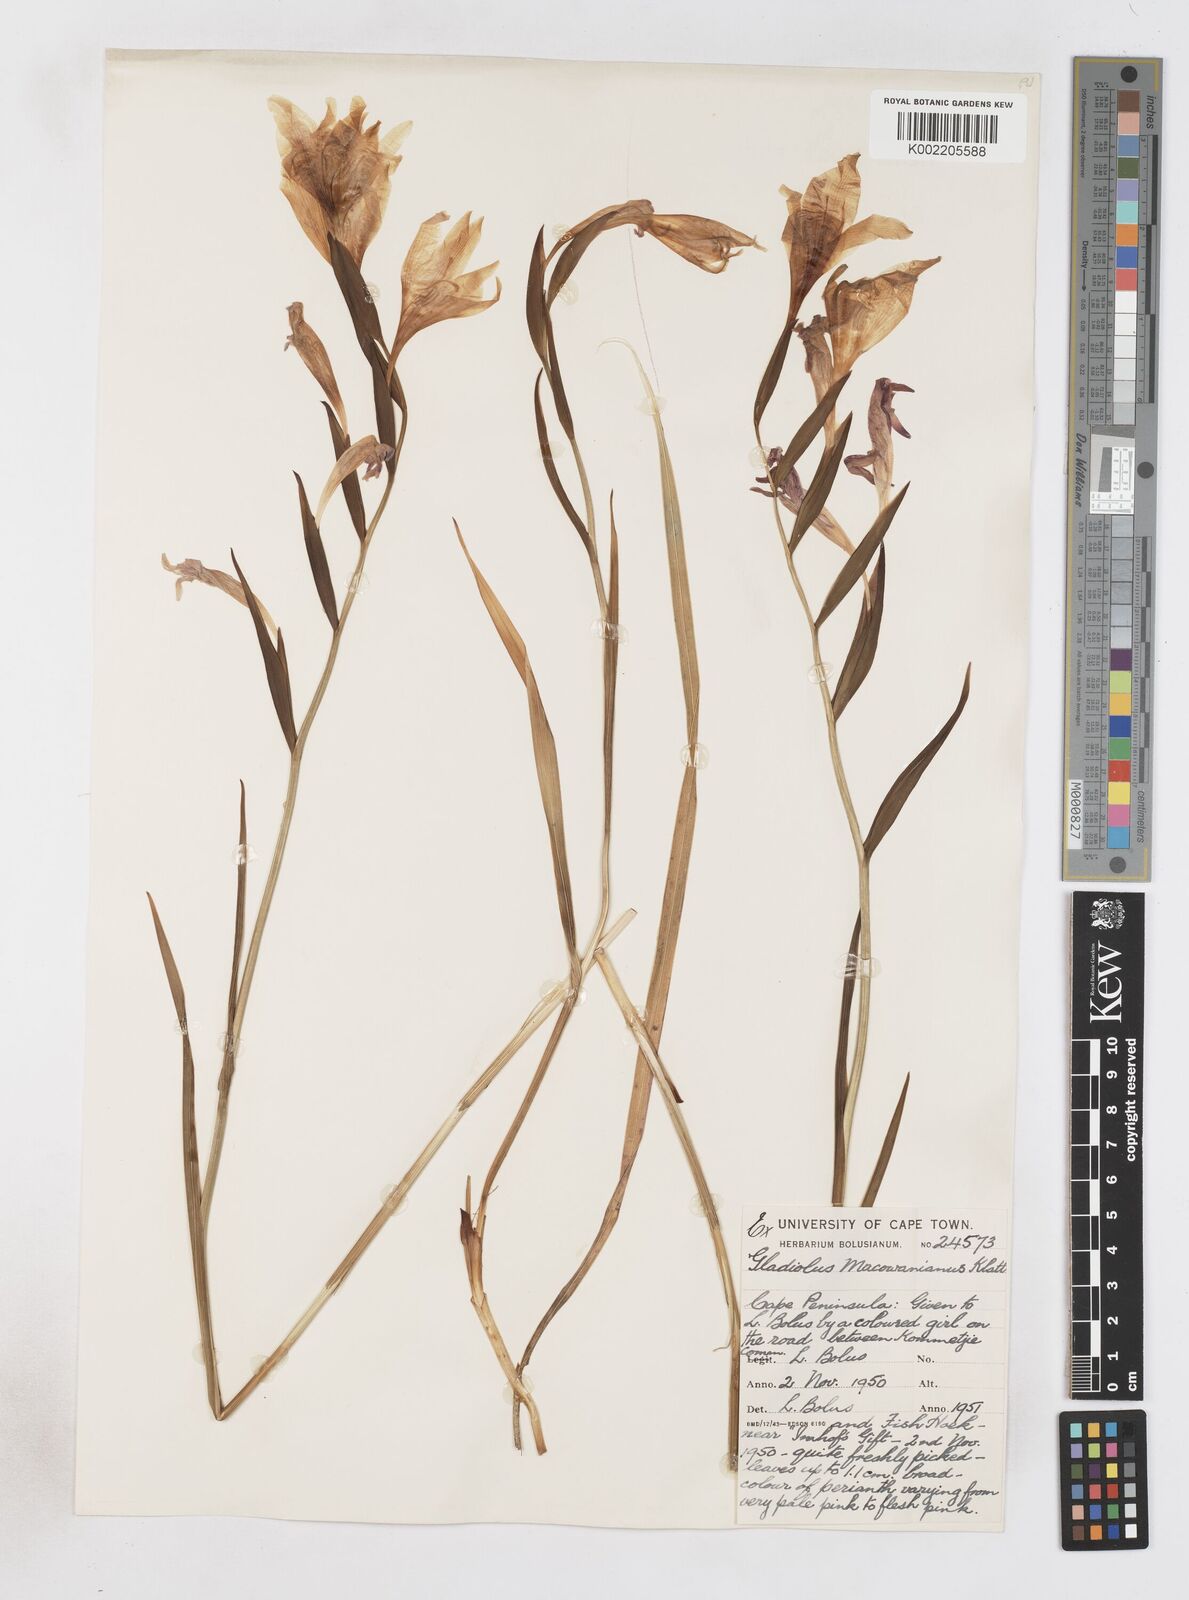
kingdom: Plantae
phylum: Tracheophyta
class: Liliopsida
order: Asparagales
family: Iridaceae
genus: Gladiolus
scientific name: Gladiolus carneus
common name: Painted-lady
